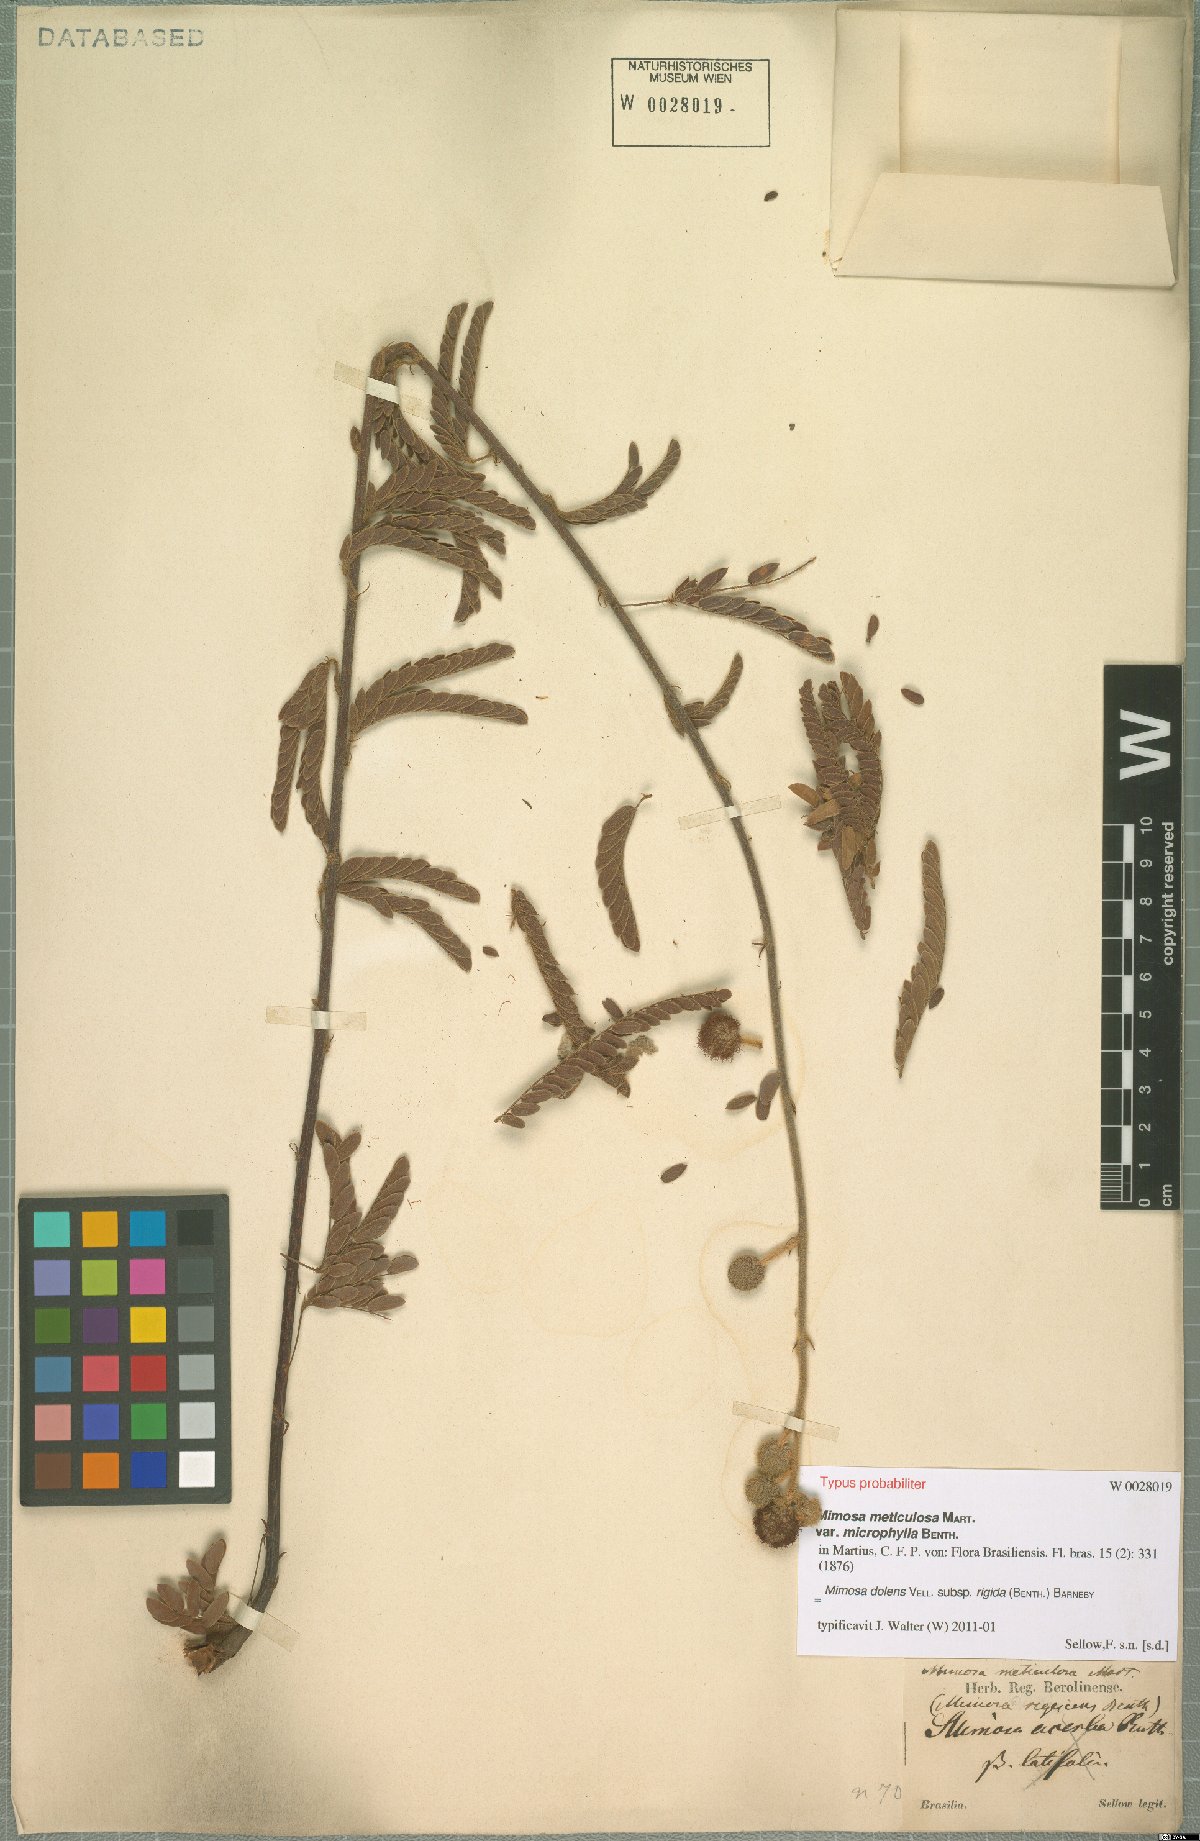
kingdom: Plantae
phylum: Tracheophyta
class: Magnoliopsida
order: Fabales
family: Fabaceae
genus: Mimosa
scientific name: Mimosa dolens
